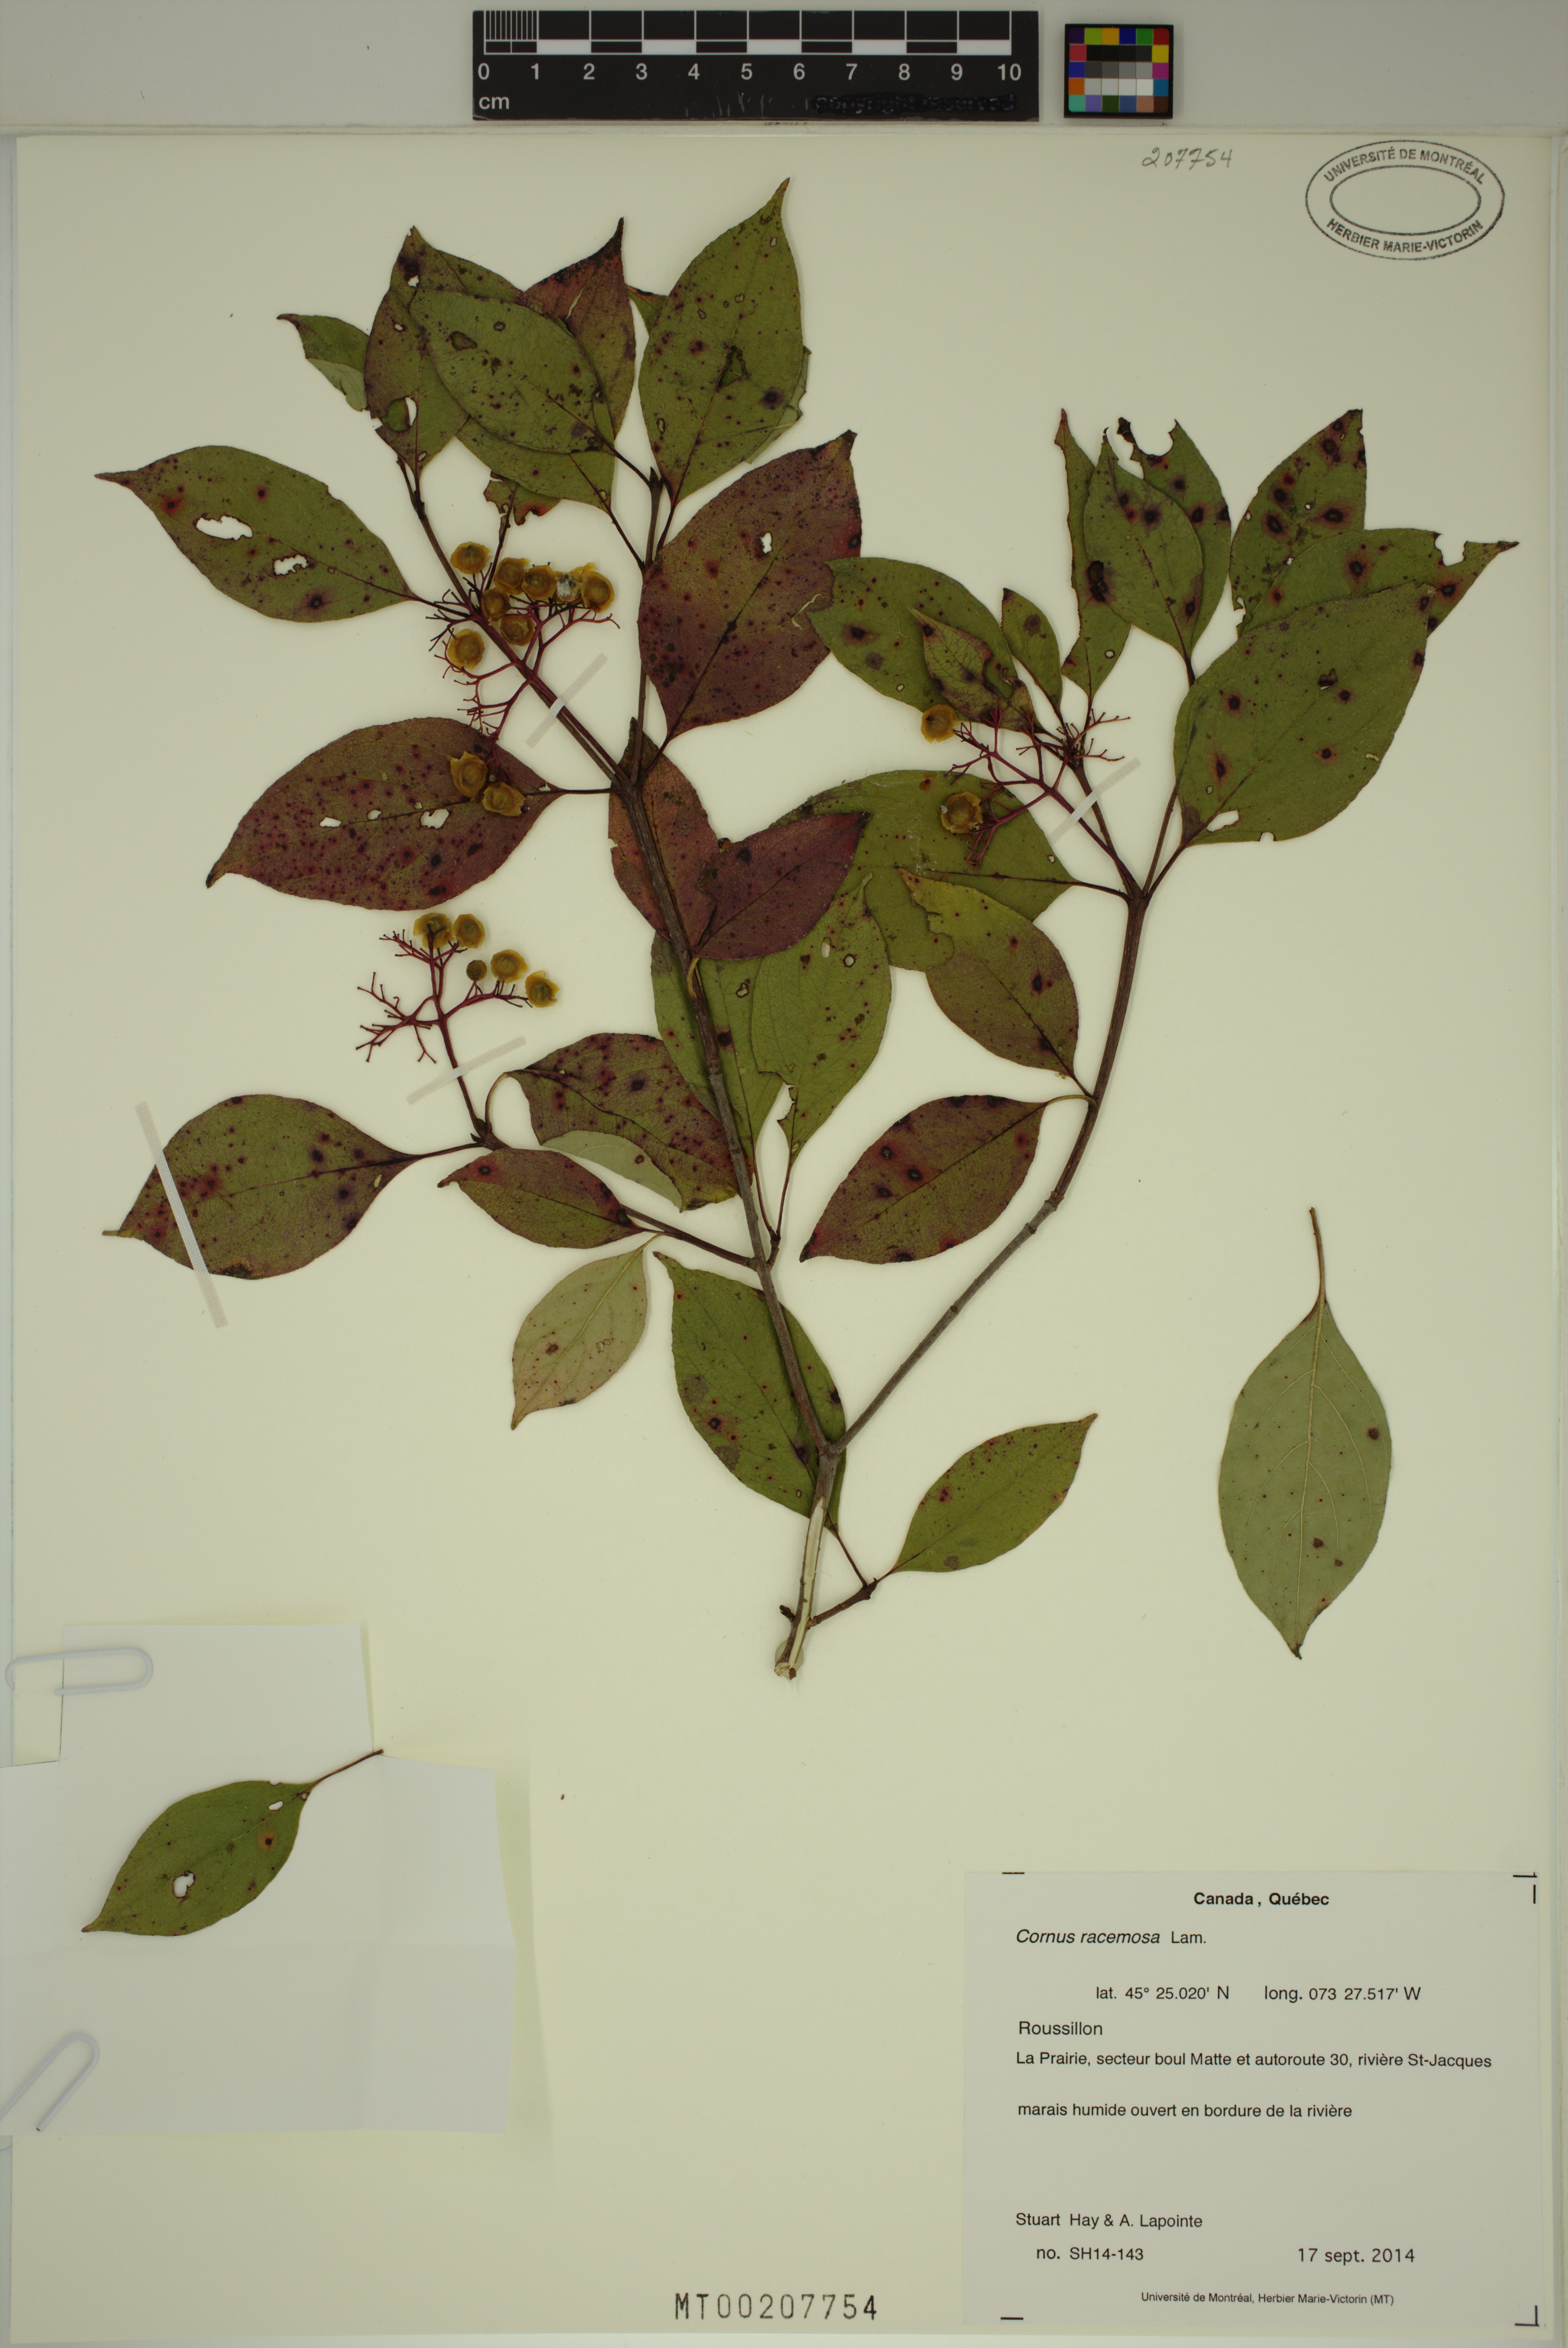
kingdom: Plantae
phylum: Tracheophyta
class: Magnoliopsida
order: Cornales
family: Cornaceae
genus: Cornus
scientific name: Cornus racemosa
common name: Panicled dogwood
